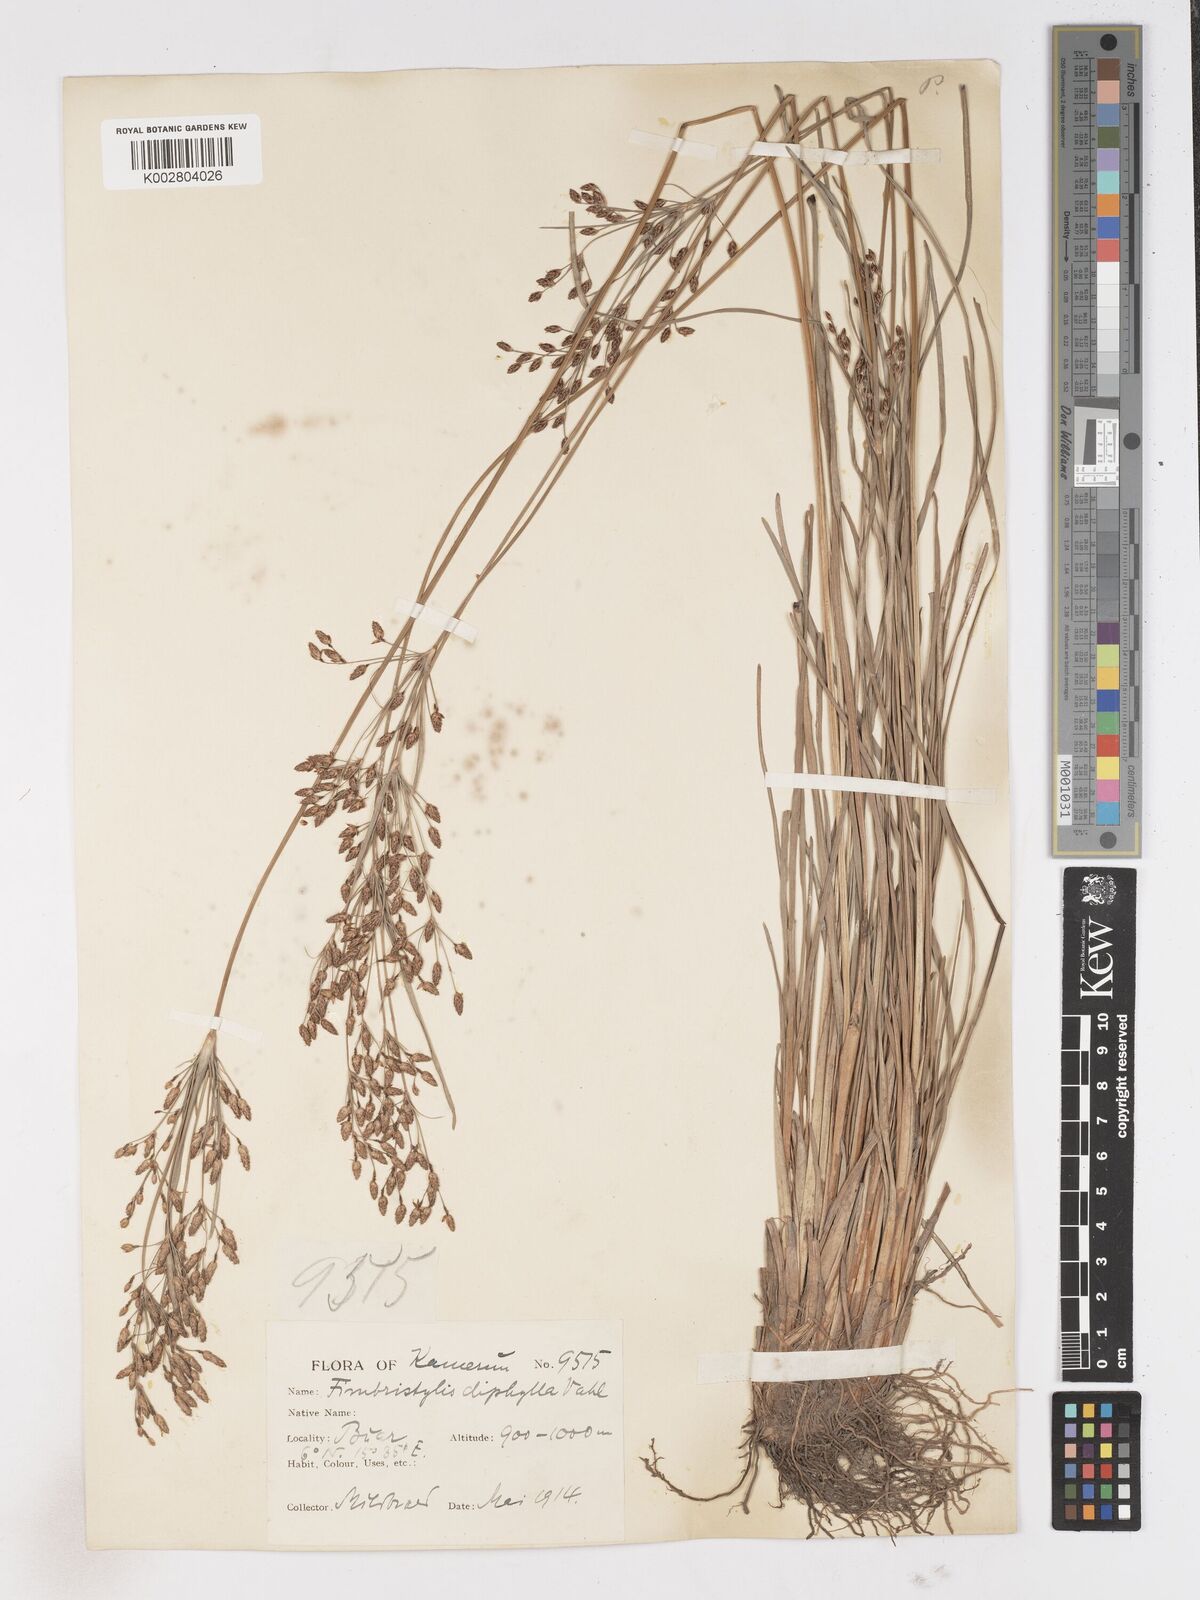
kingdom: Plantae
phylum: Tracheophyta
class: Liliopsida
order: Poales
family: Cyperaceae
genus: Fimbristylis
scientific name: Fimbristylis dichotoma
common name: Forked fimbry
